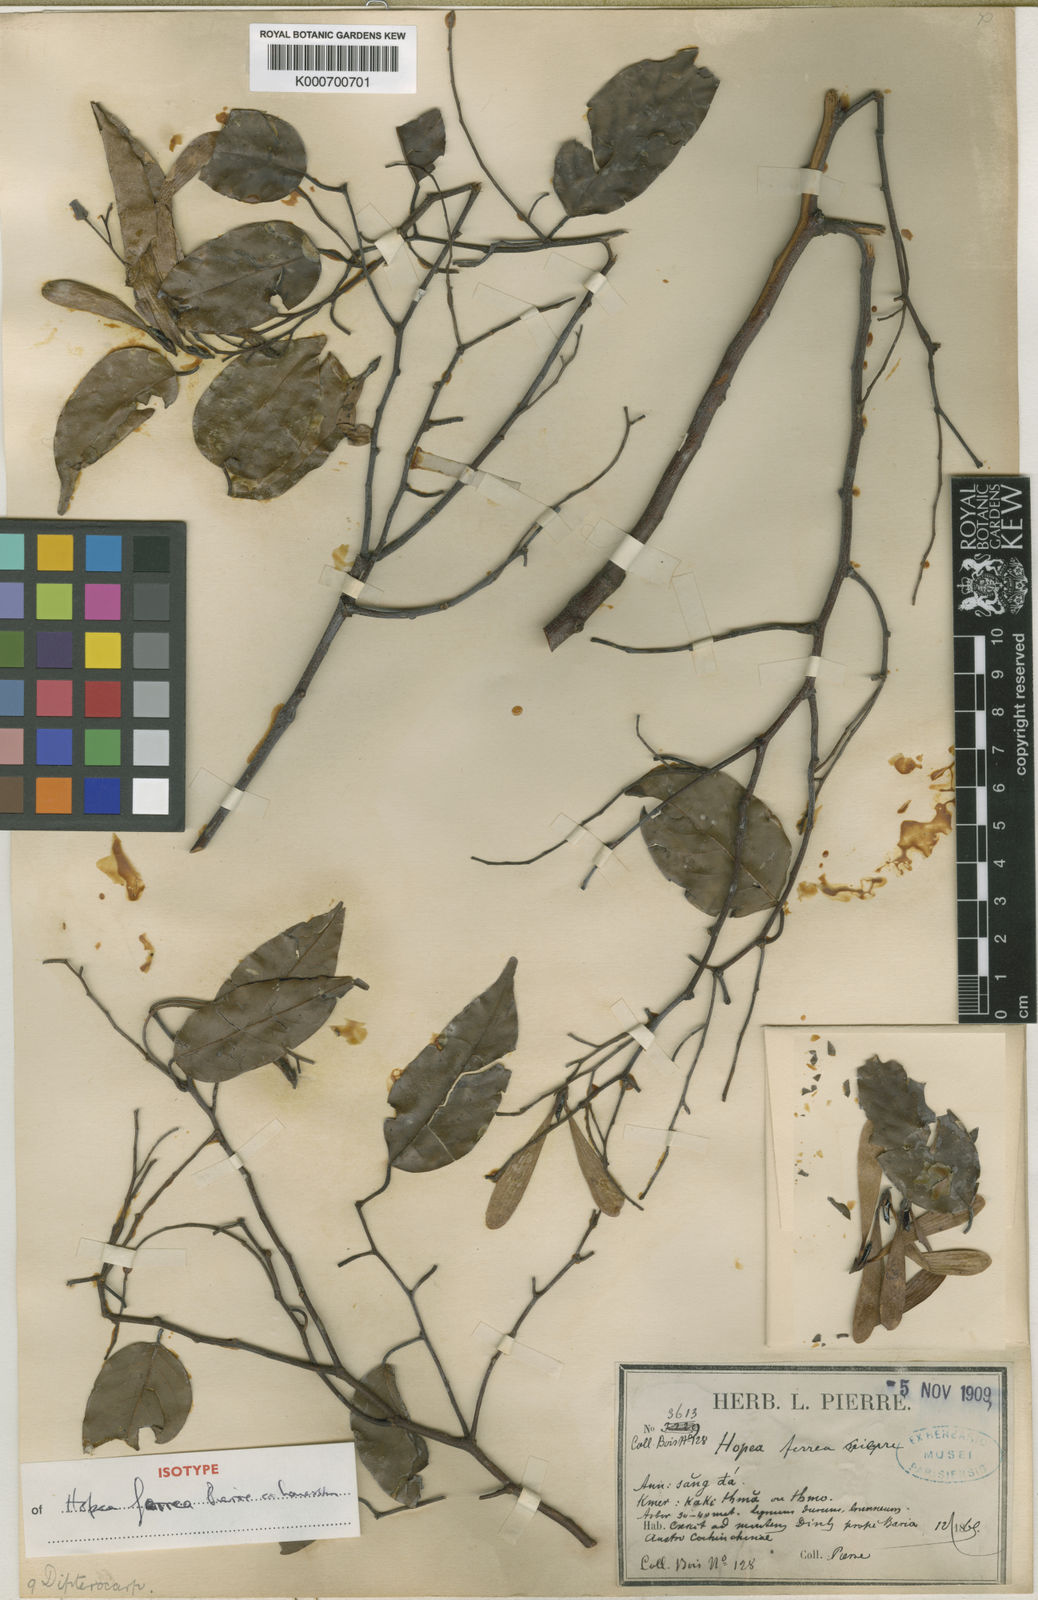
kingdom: Plantae
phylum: Tracheophyta
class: Magnoliopsida
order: Malvales
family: Dipterocarpaceae
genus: Hopea
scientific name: Hopea ferrea
